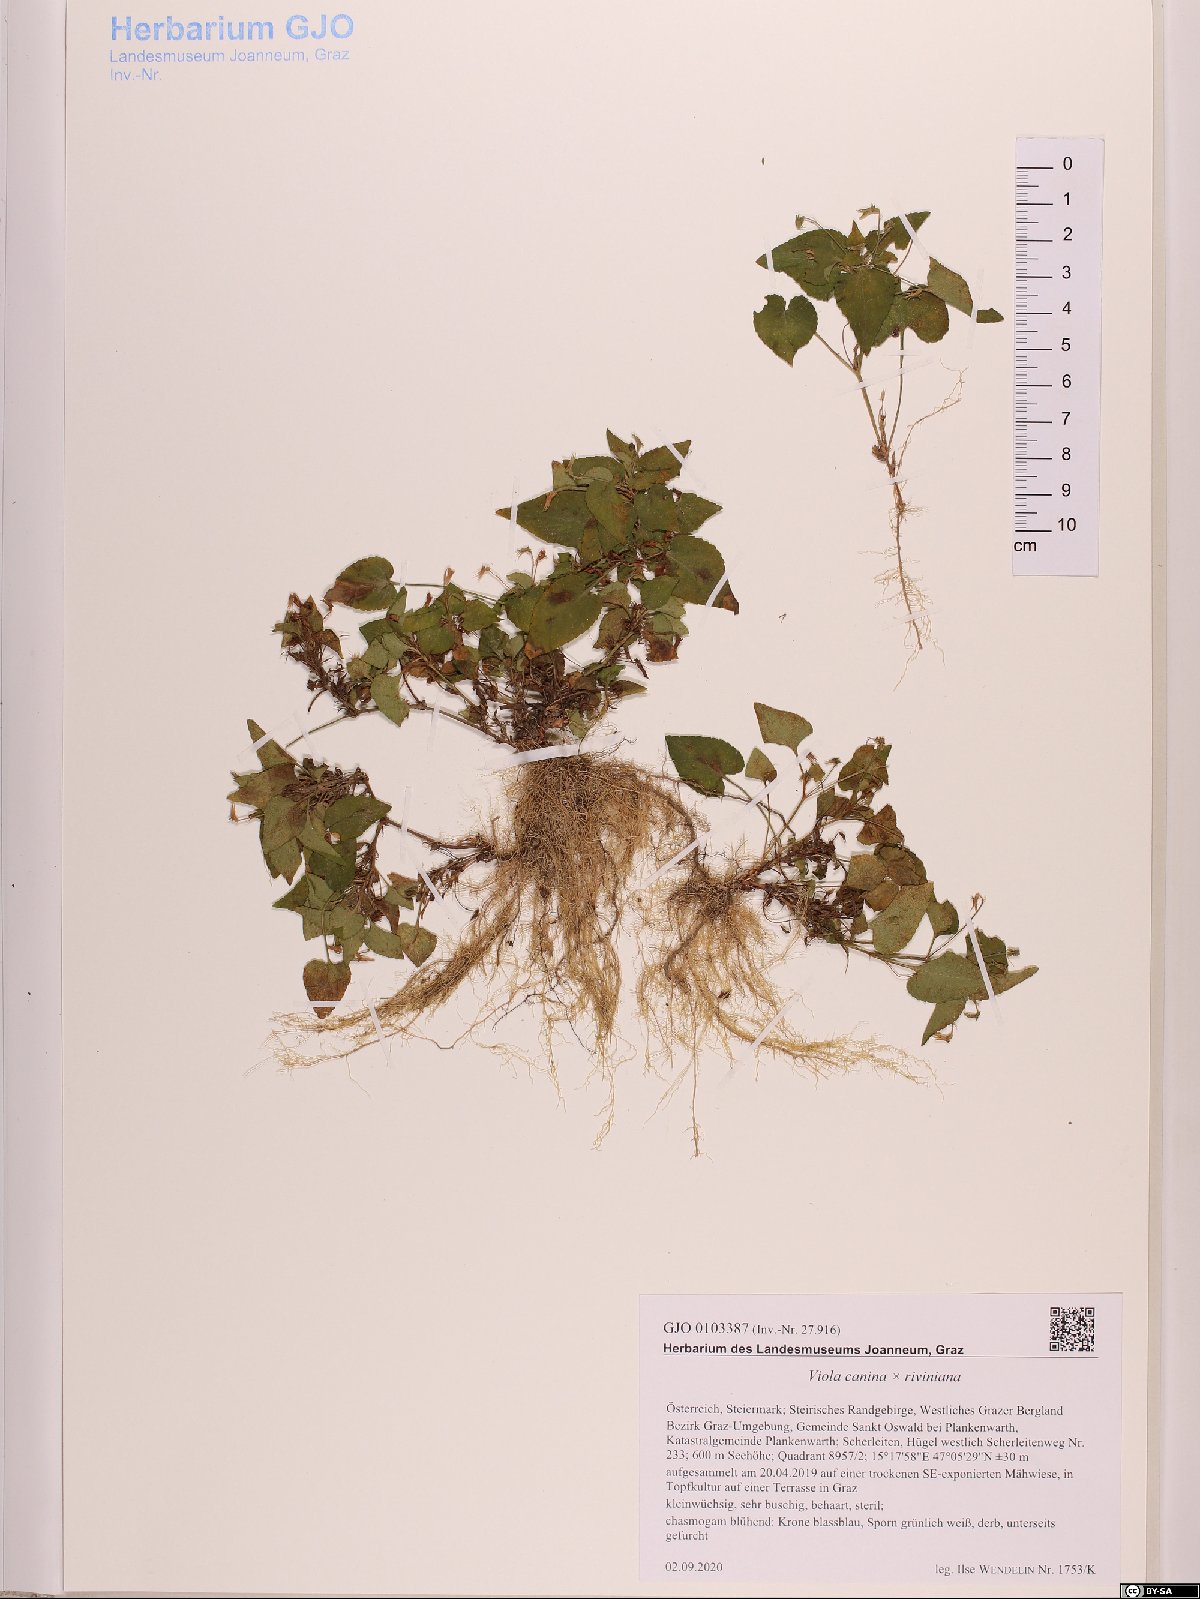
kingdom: Plantae
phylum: Tracheophyta
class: Magnoliopsida
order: Malpighiales
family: Violaceae
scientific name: Violaceae
